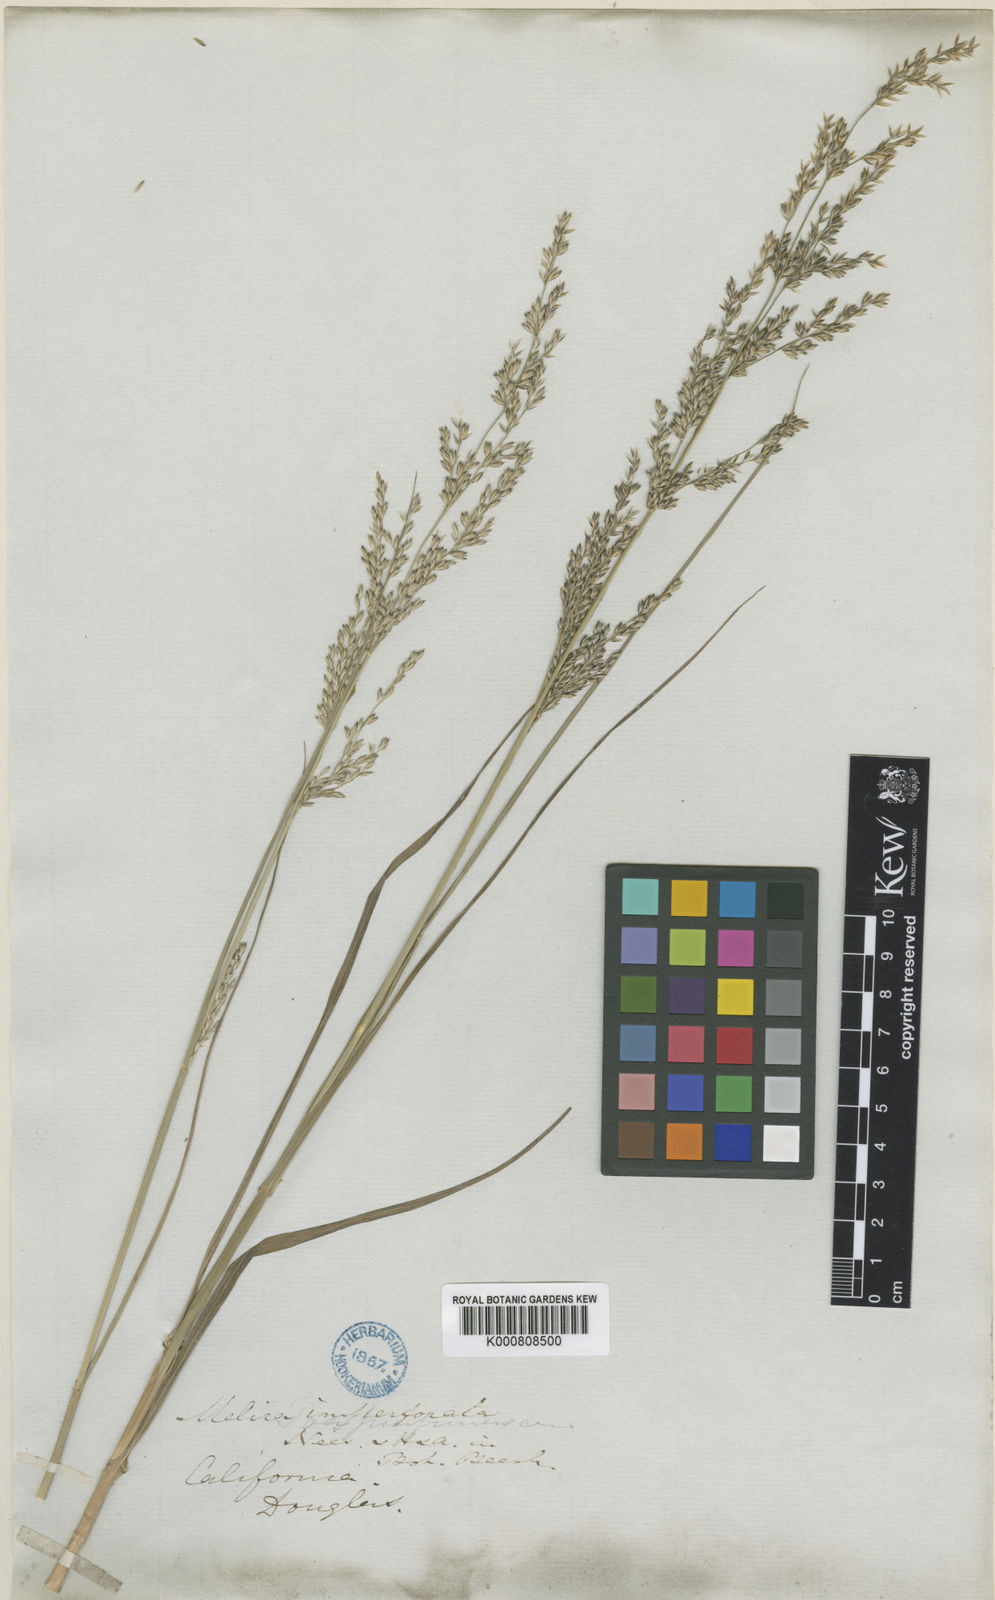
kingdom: Plantae
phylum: Tracheophyta
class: Liliopsida
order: Poales
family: Poaceae
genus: Melica
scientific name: Melica imperfecta
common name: California melic
